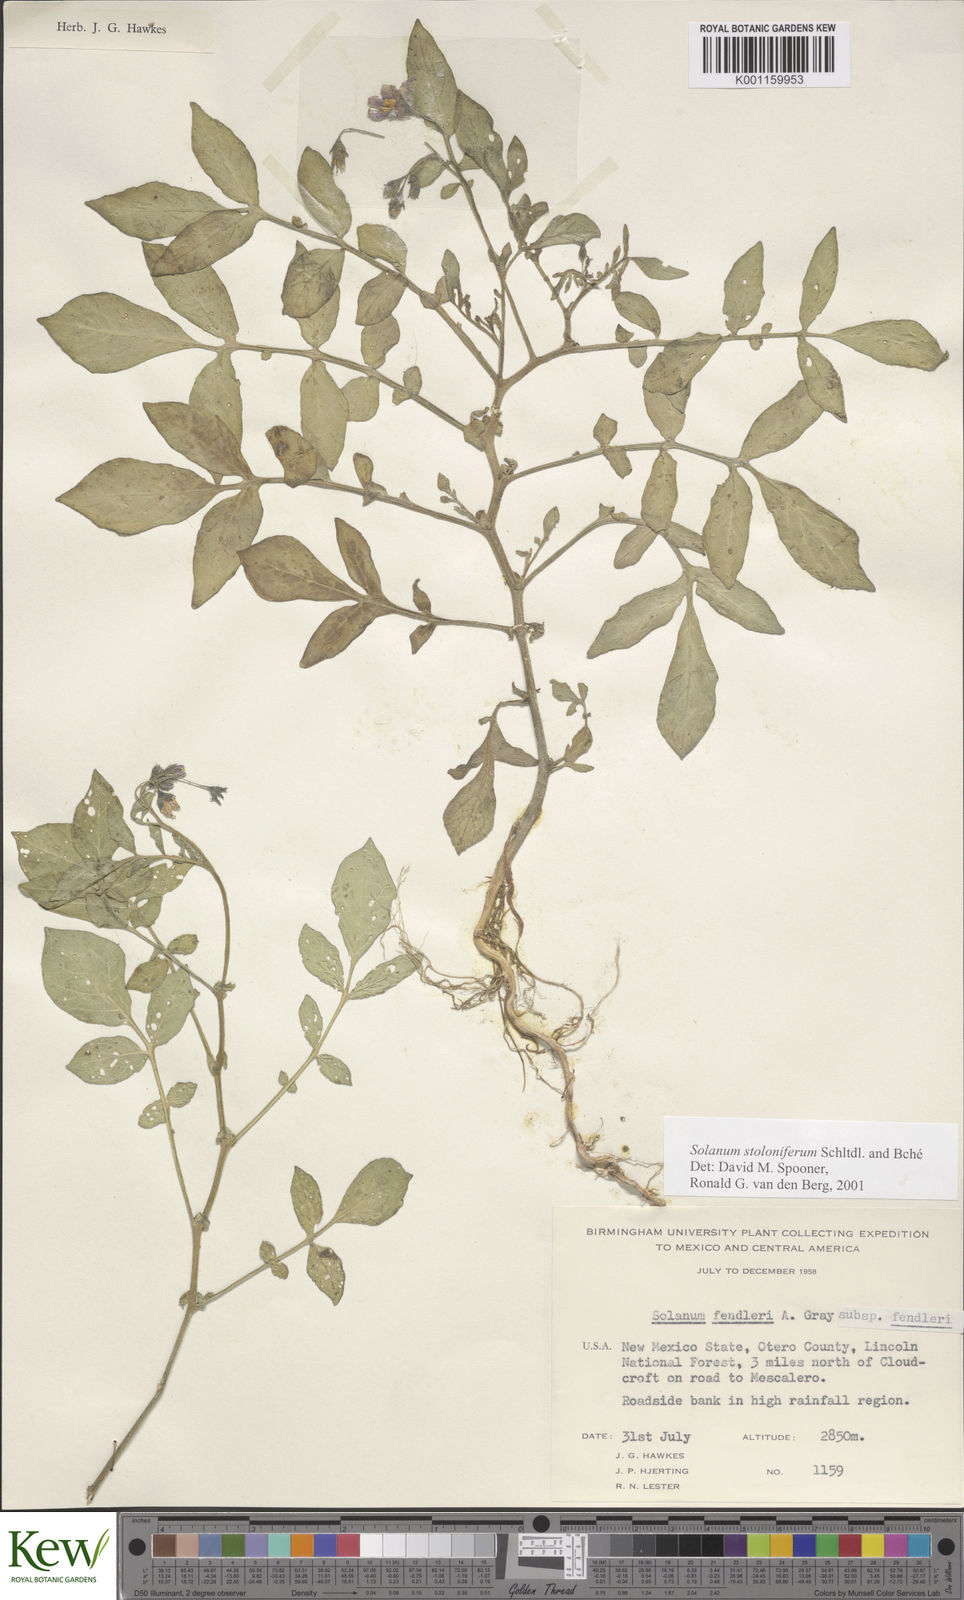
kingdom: Plantae
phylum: Tracheophyta
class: Magnoliopsida
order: Solanales
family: Solanaceae
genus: Solanum
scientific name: Solanum stoloniferum
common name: Fendler's nighshade
